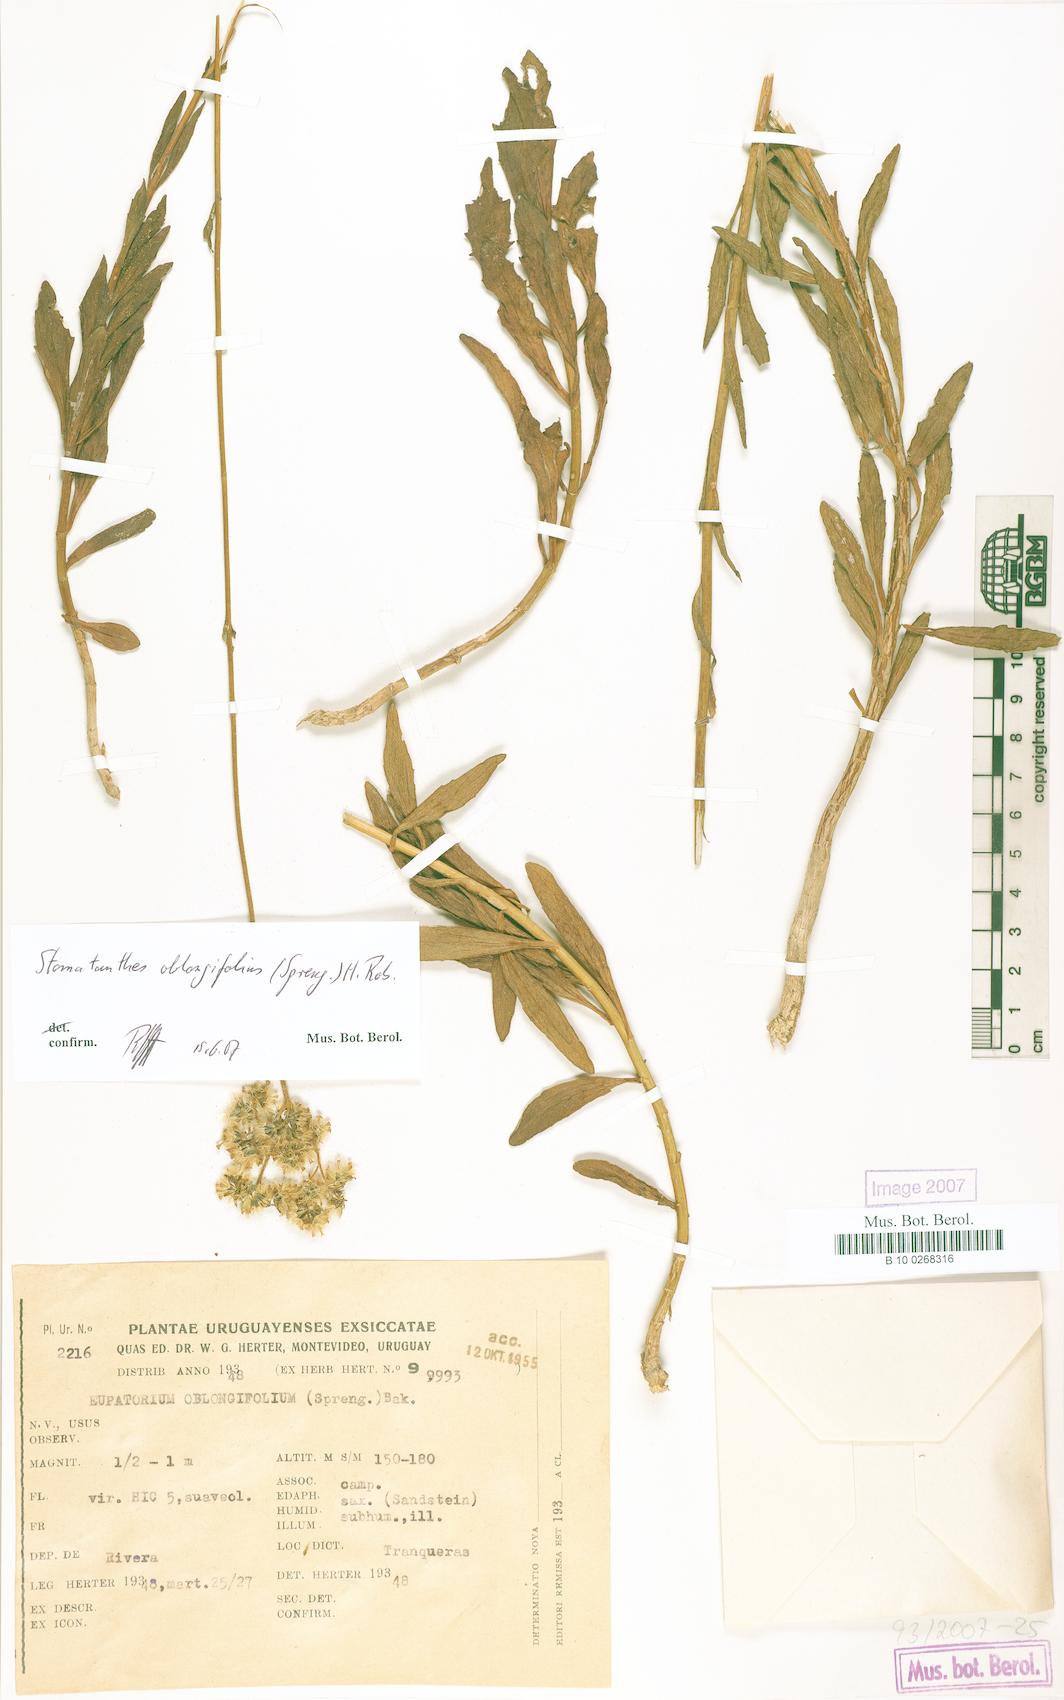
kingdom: Plantae
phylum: Tracheophyta
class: Magnoliopsida
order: Asterales
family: Asteraceae
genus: Stomatanthes
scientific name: Stomatanthes oblongifolius
